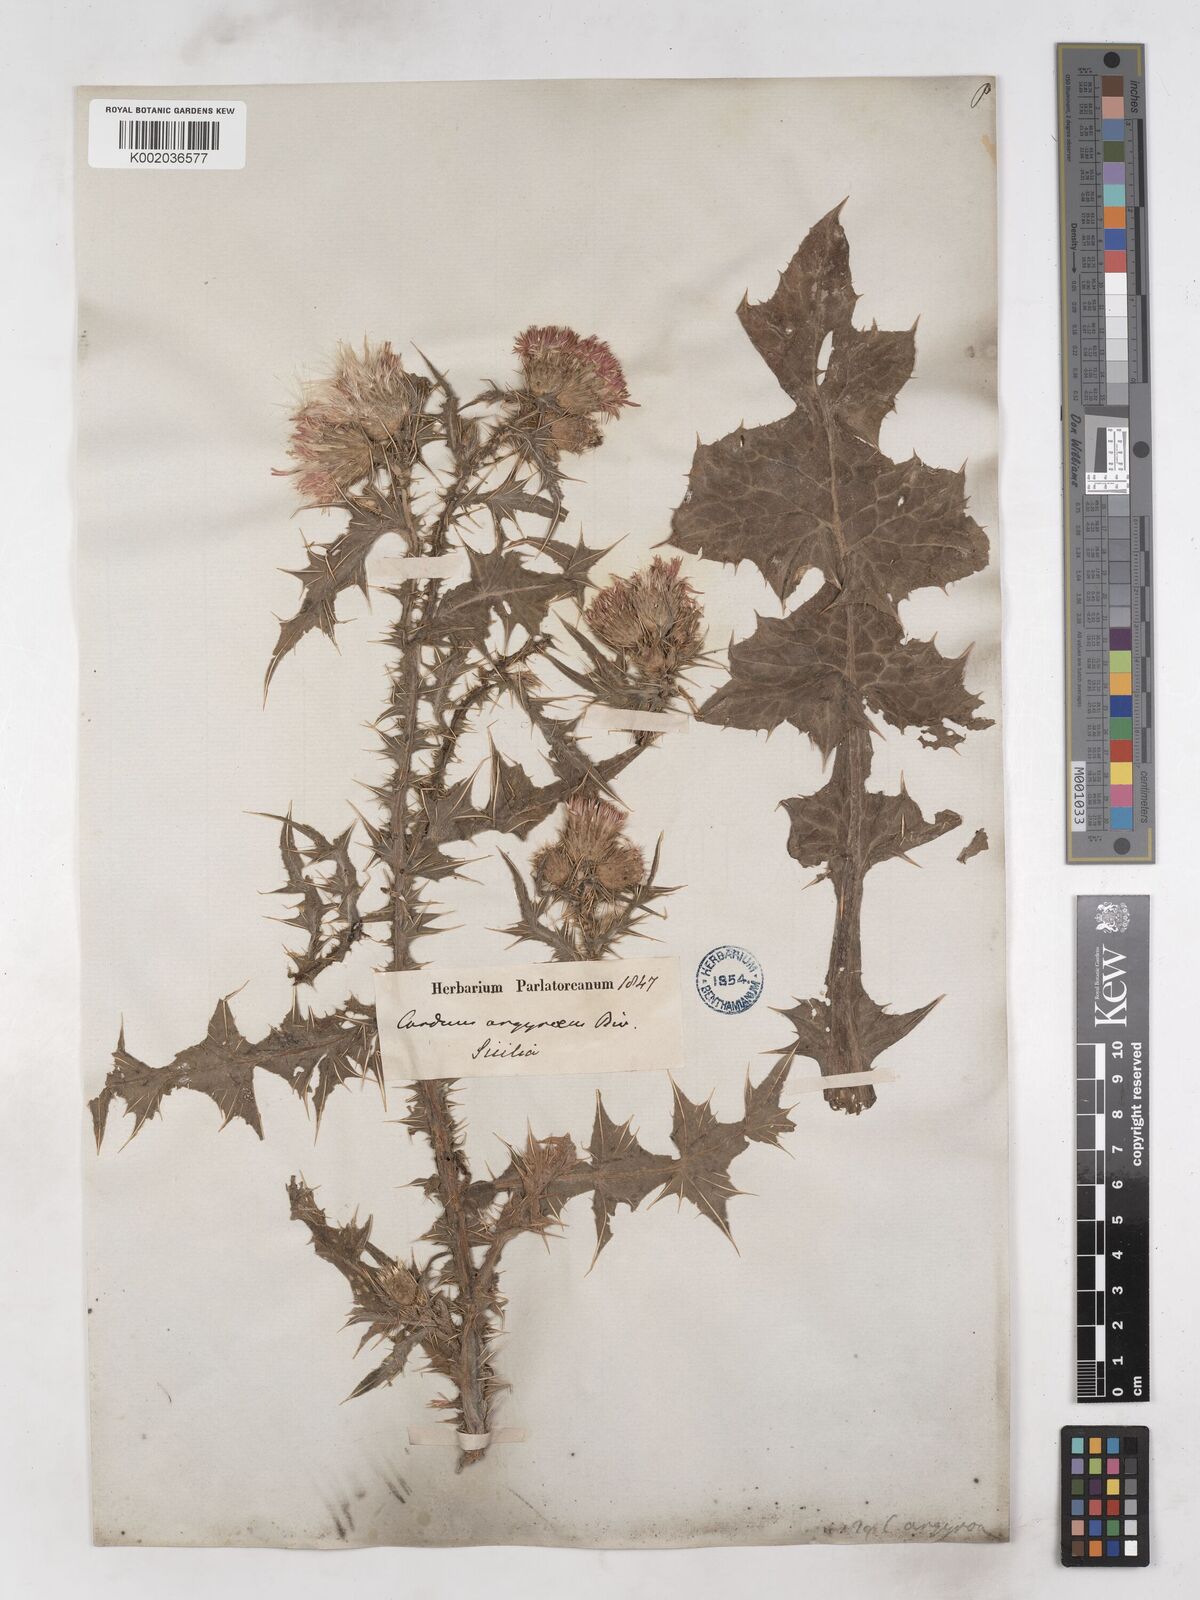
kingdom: Plantae
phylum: Tracheophyta
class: Magnoliopsida
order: Asterales
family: Asteraceae
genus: Carduus
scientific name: Carduus argyroa
